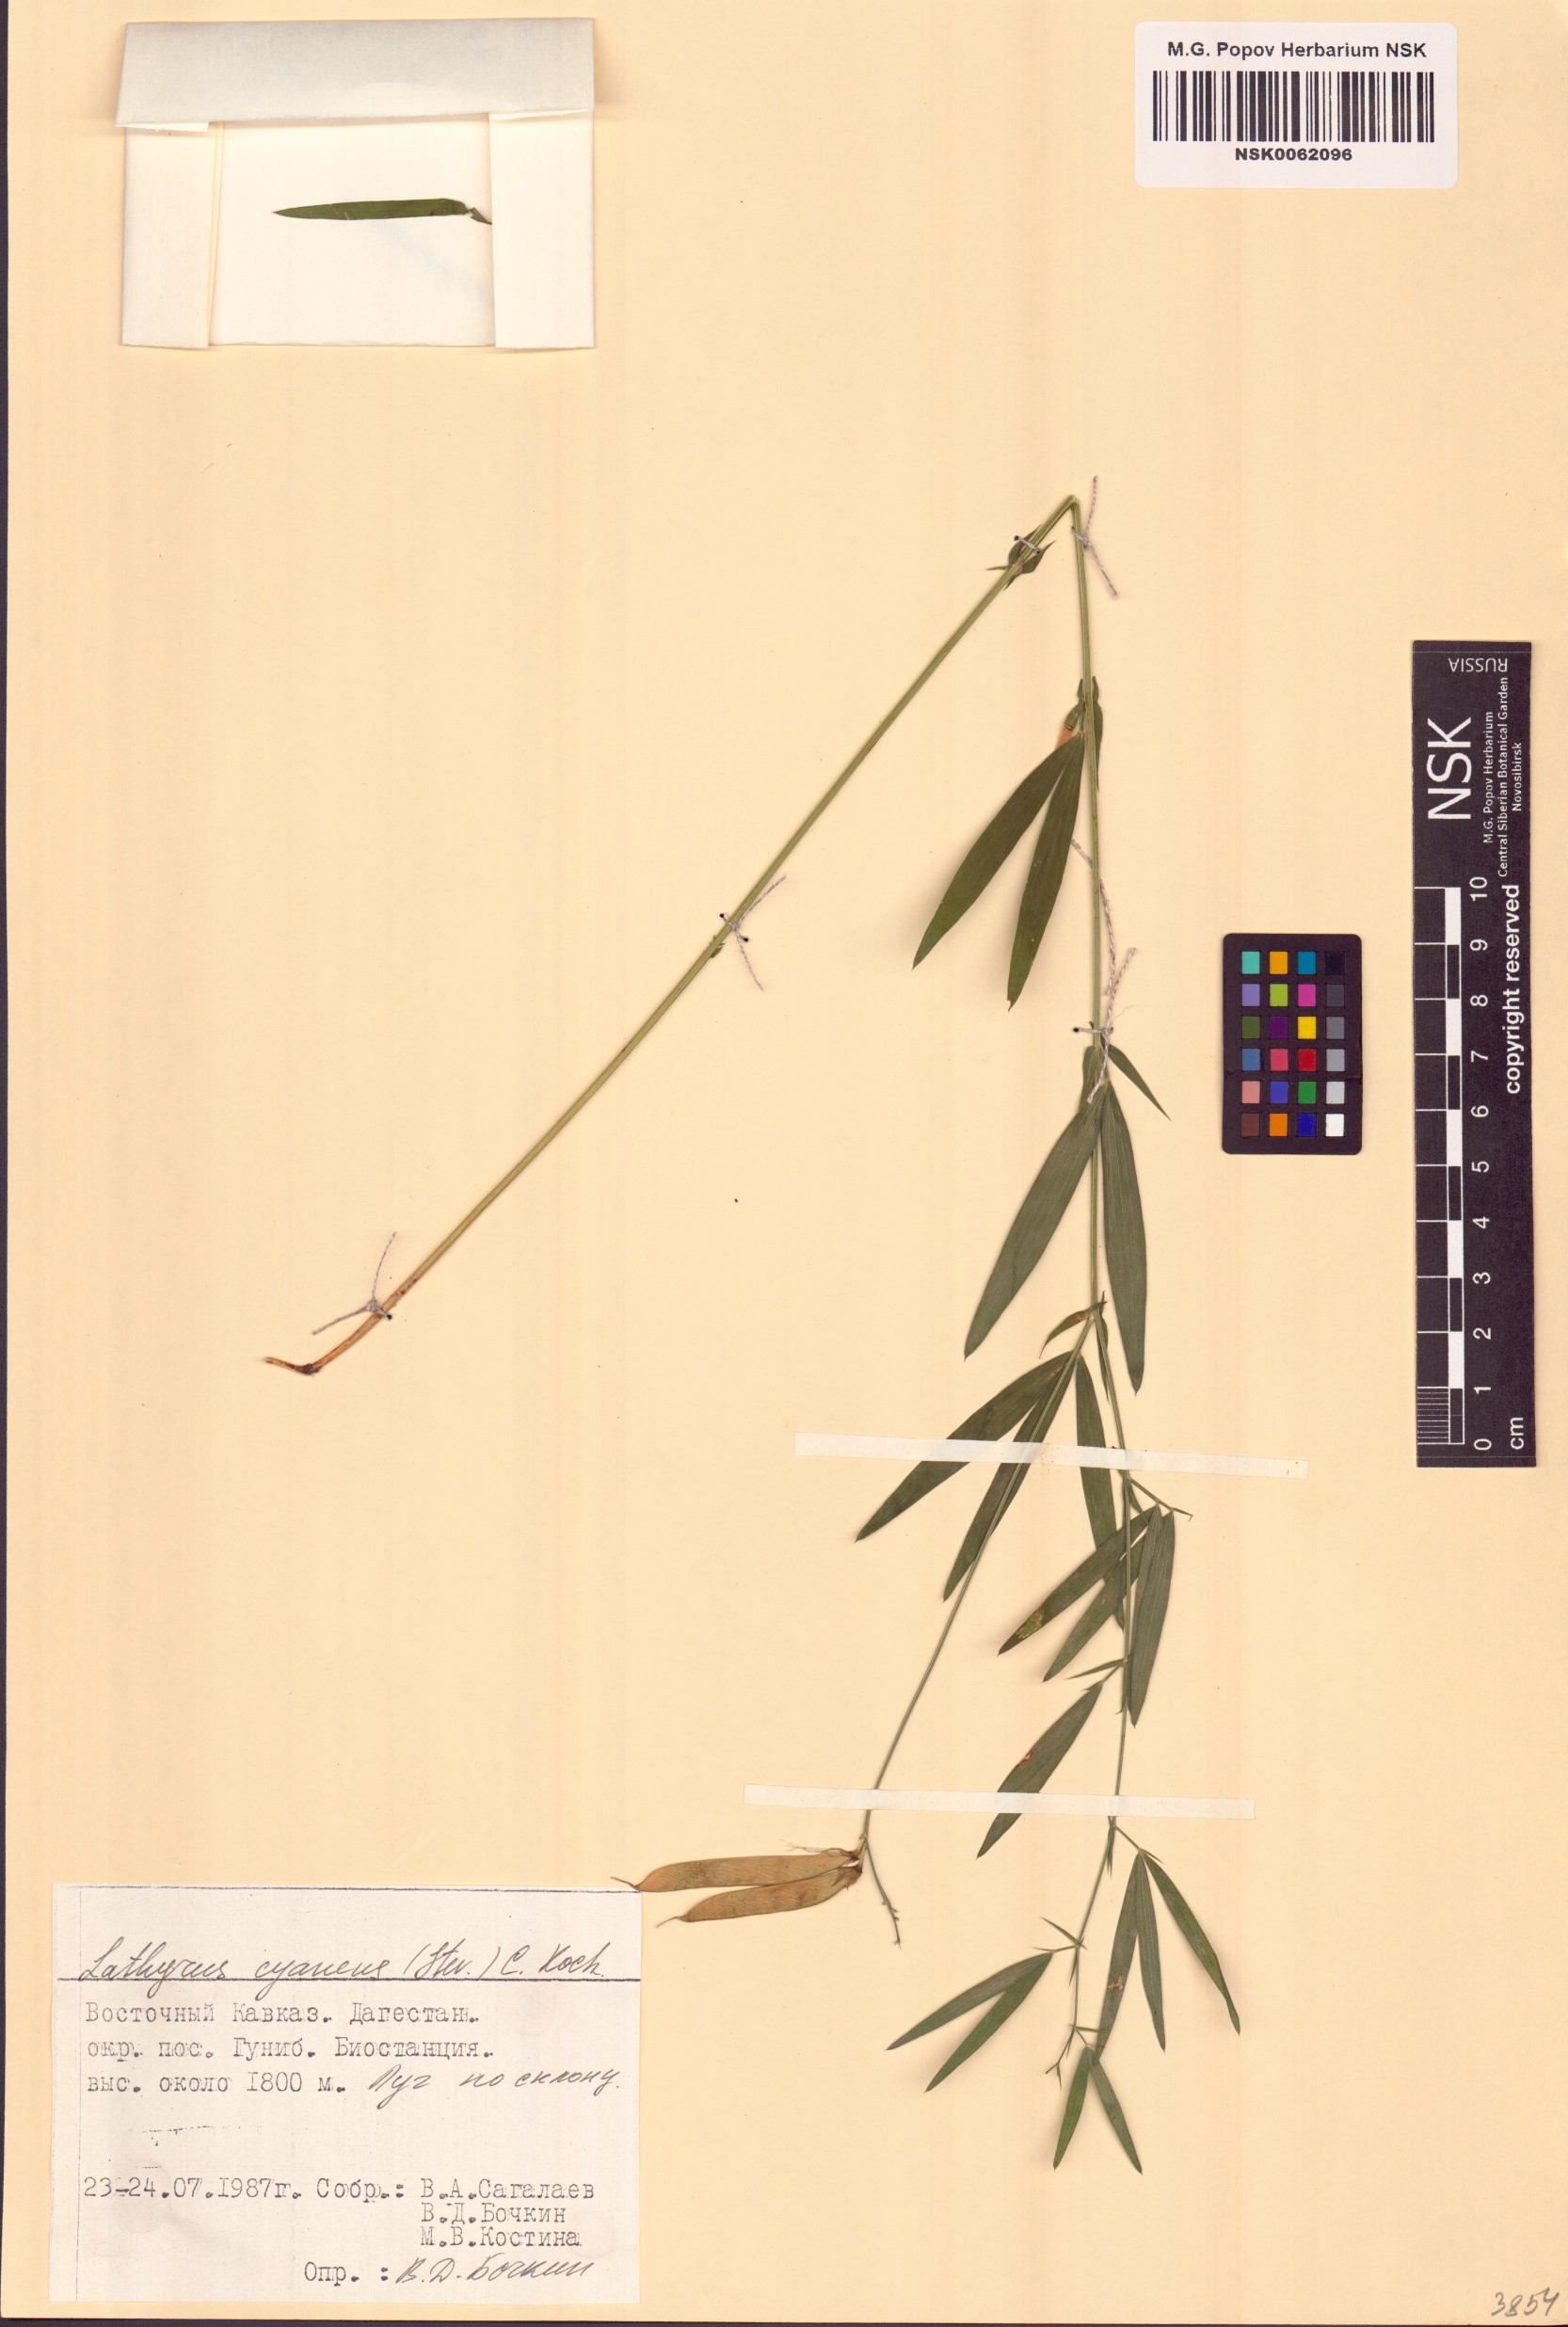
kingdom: Plantae
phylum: Tracheophyta
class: Magnoliopsida
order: Fabales
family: Fabaceae
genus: Lathyrus
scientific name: Lathyrus cyaneus
